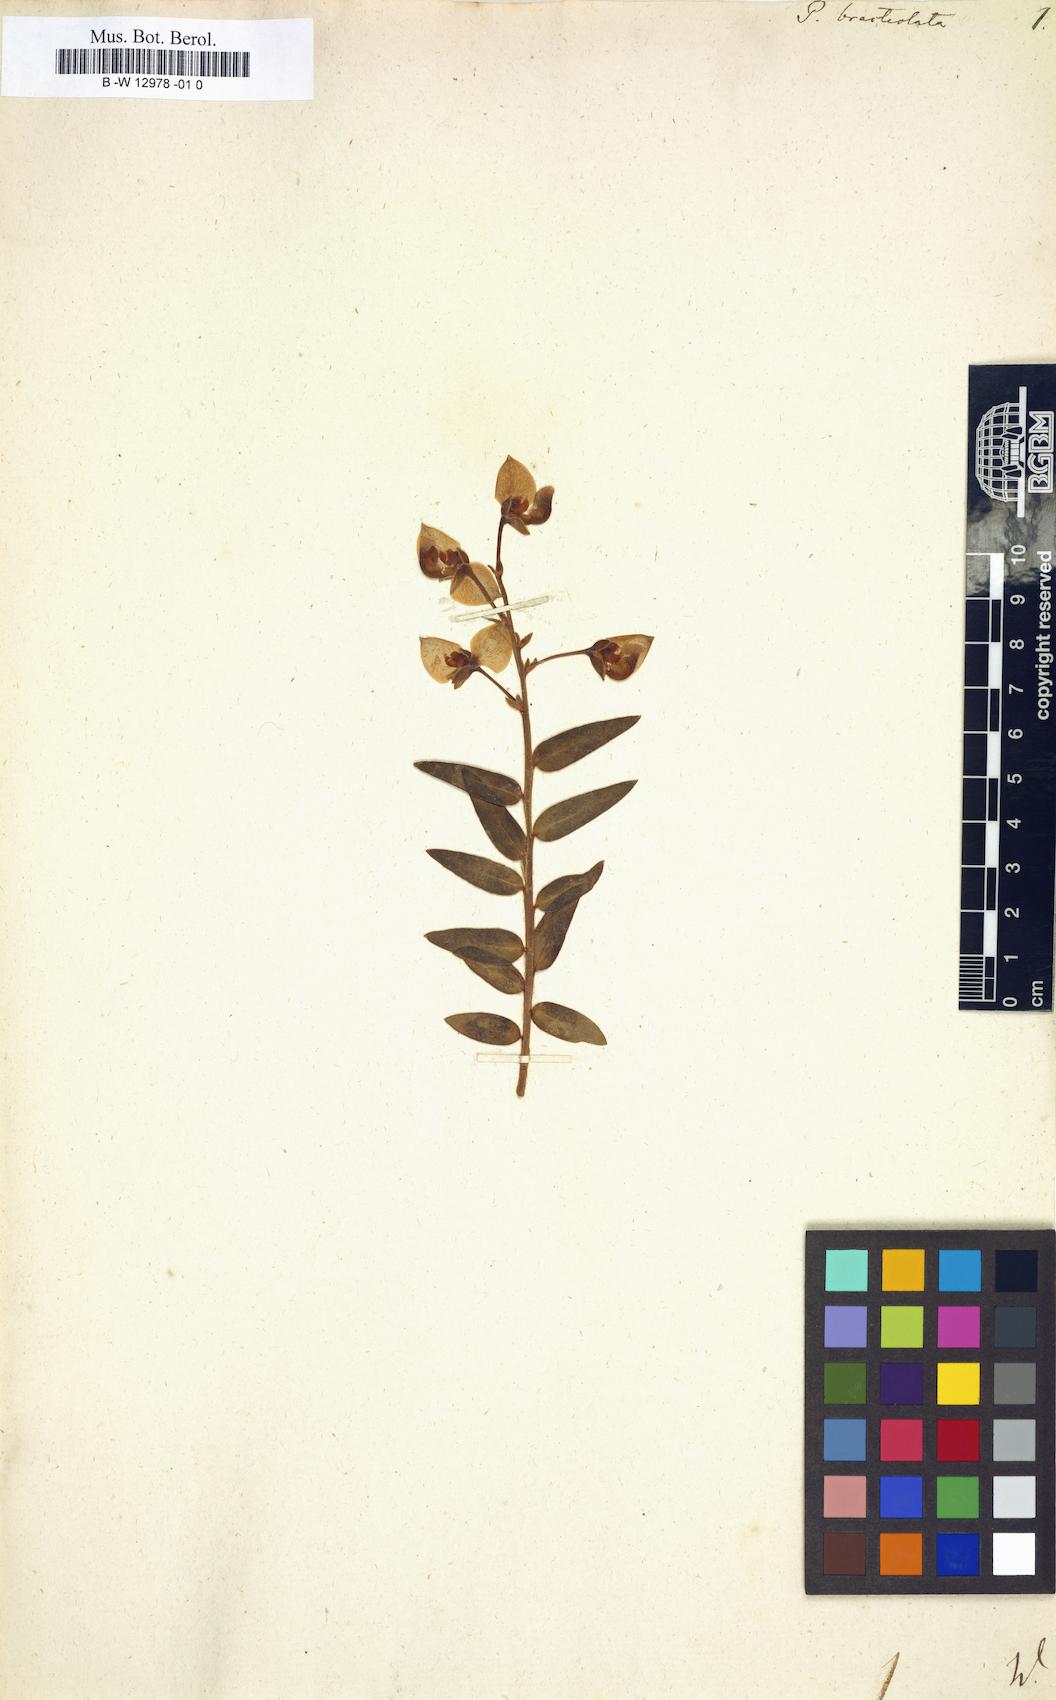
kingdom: Plantae
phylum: Tracheophyta
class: Magnoliopsida
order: Fabales
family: Polygalaceae
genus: Polygala
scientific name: Polygala bracteolata
